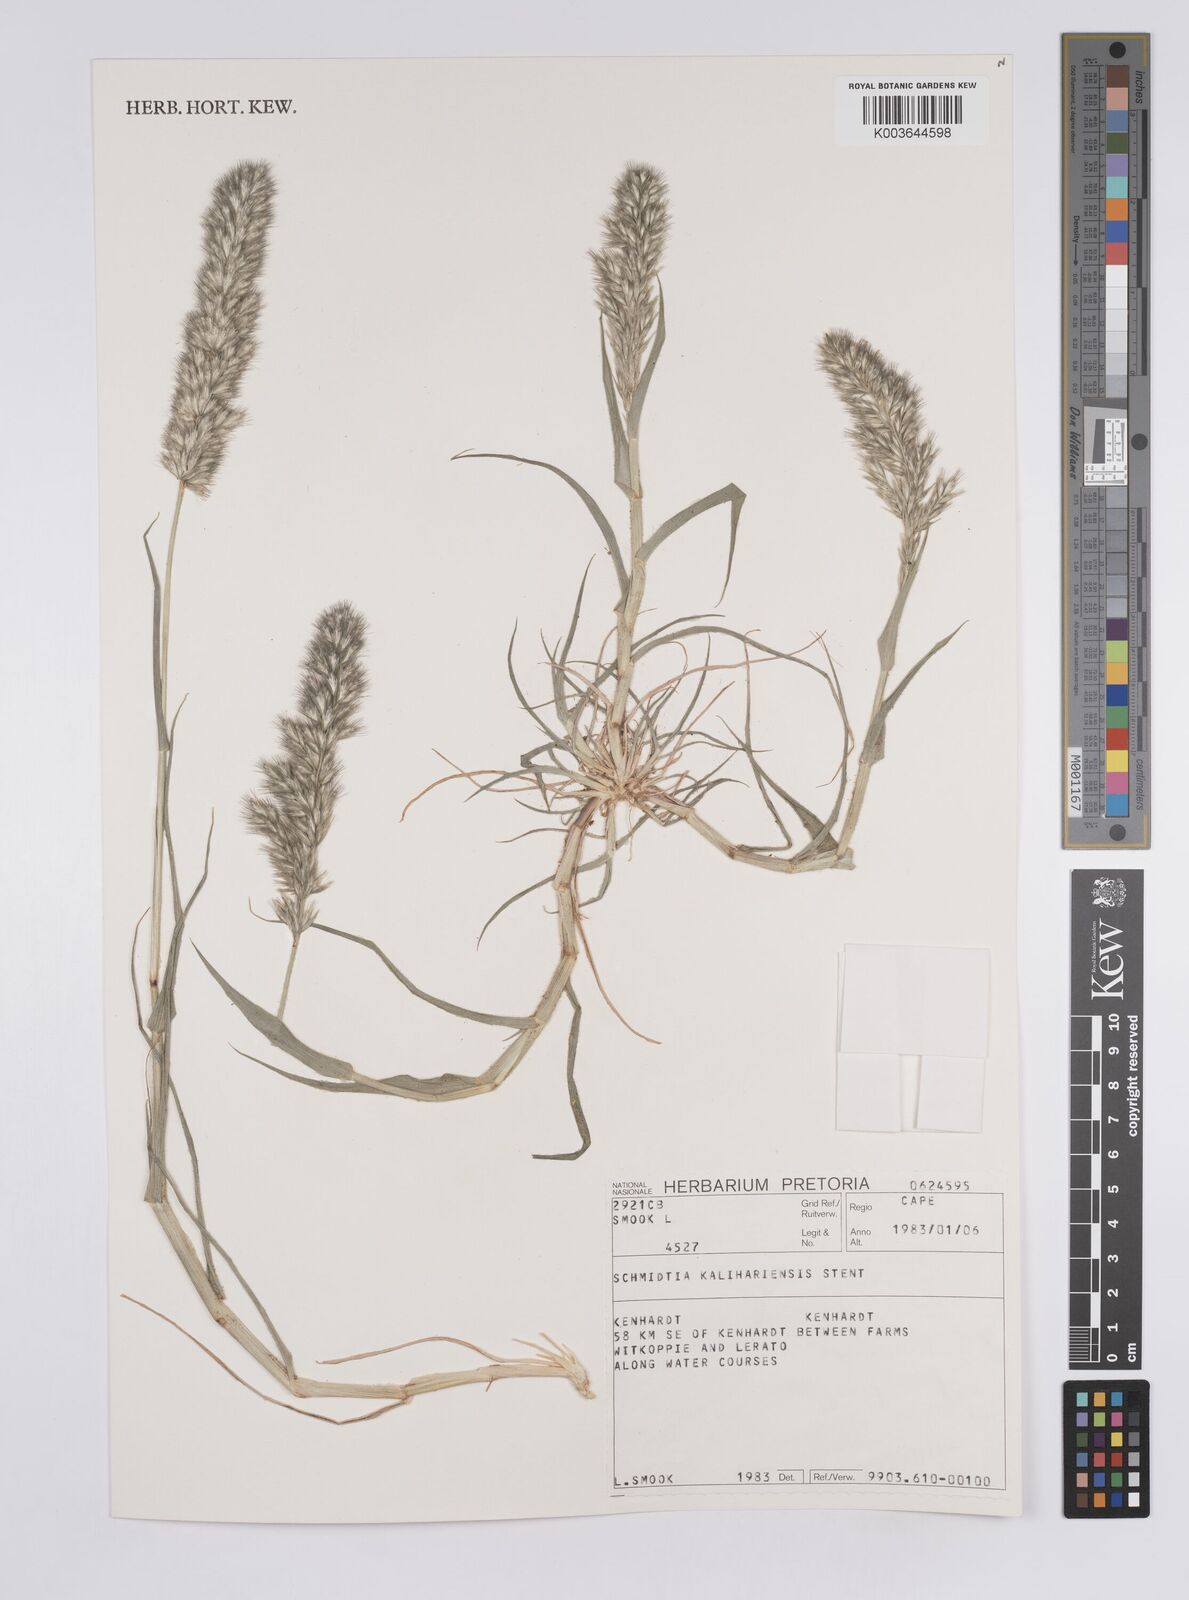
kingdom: Plantae
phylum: Tracheophyta
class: Liliopsida
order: Poales
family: Poaceae
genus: Schmidtia
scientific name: Schmidtia kalahariensis
